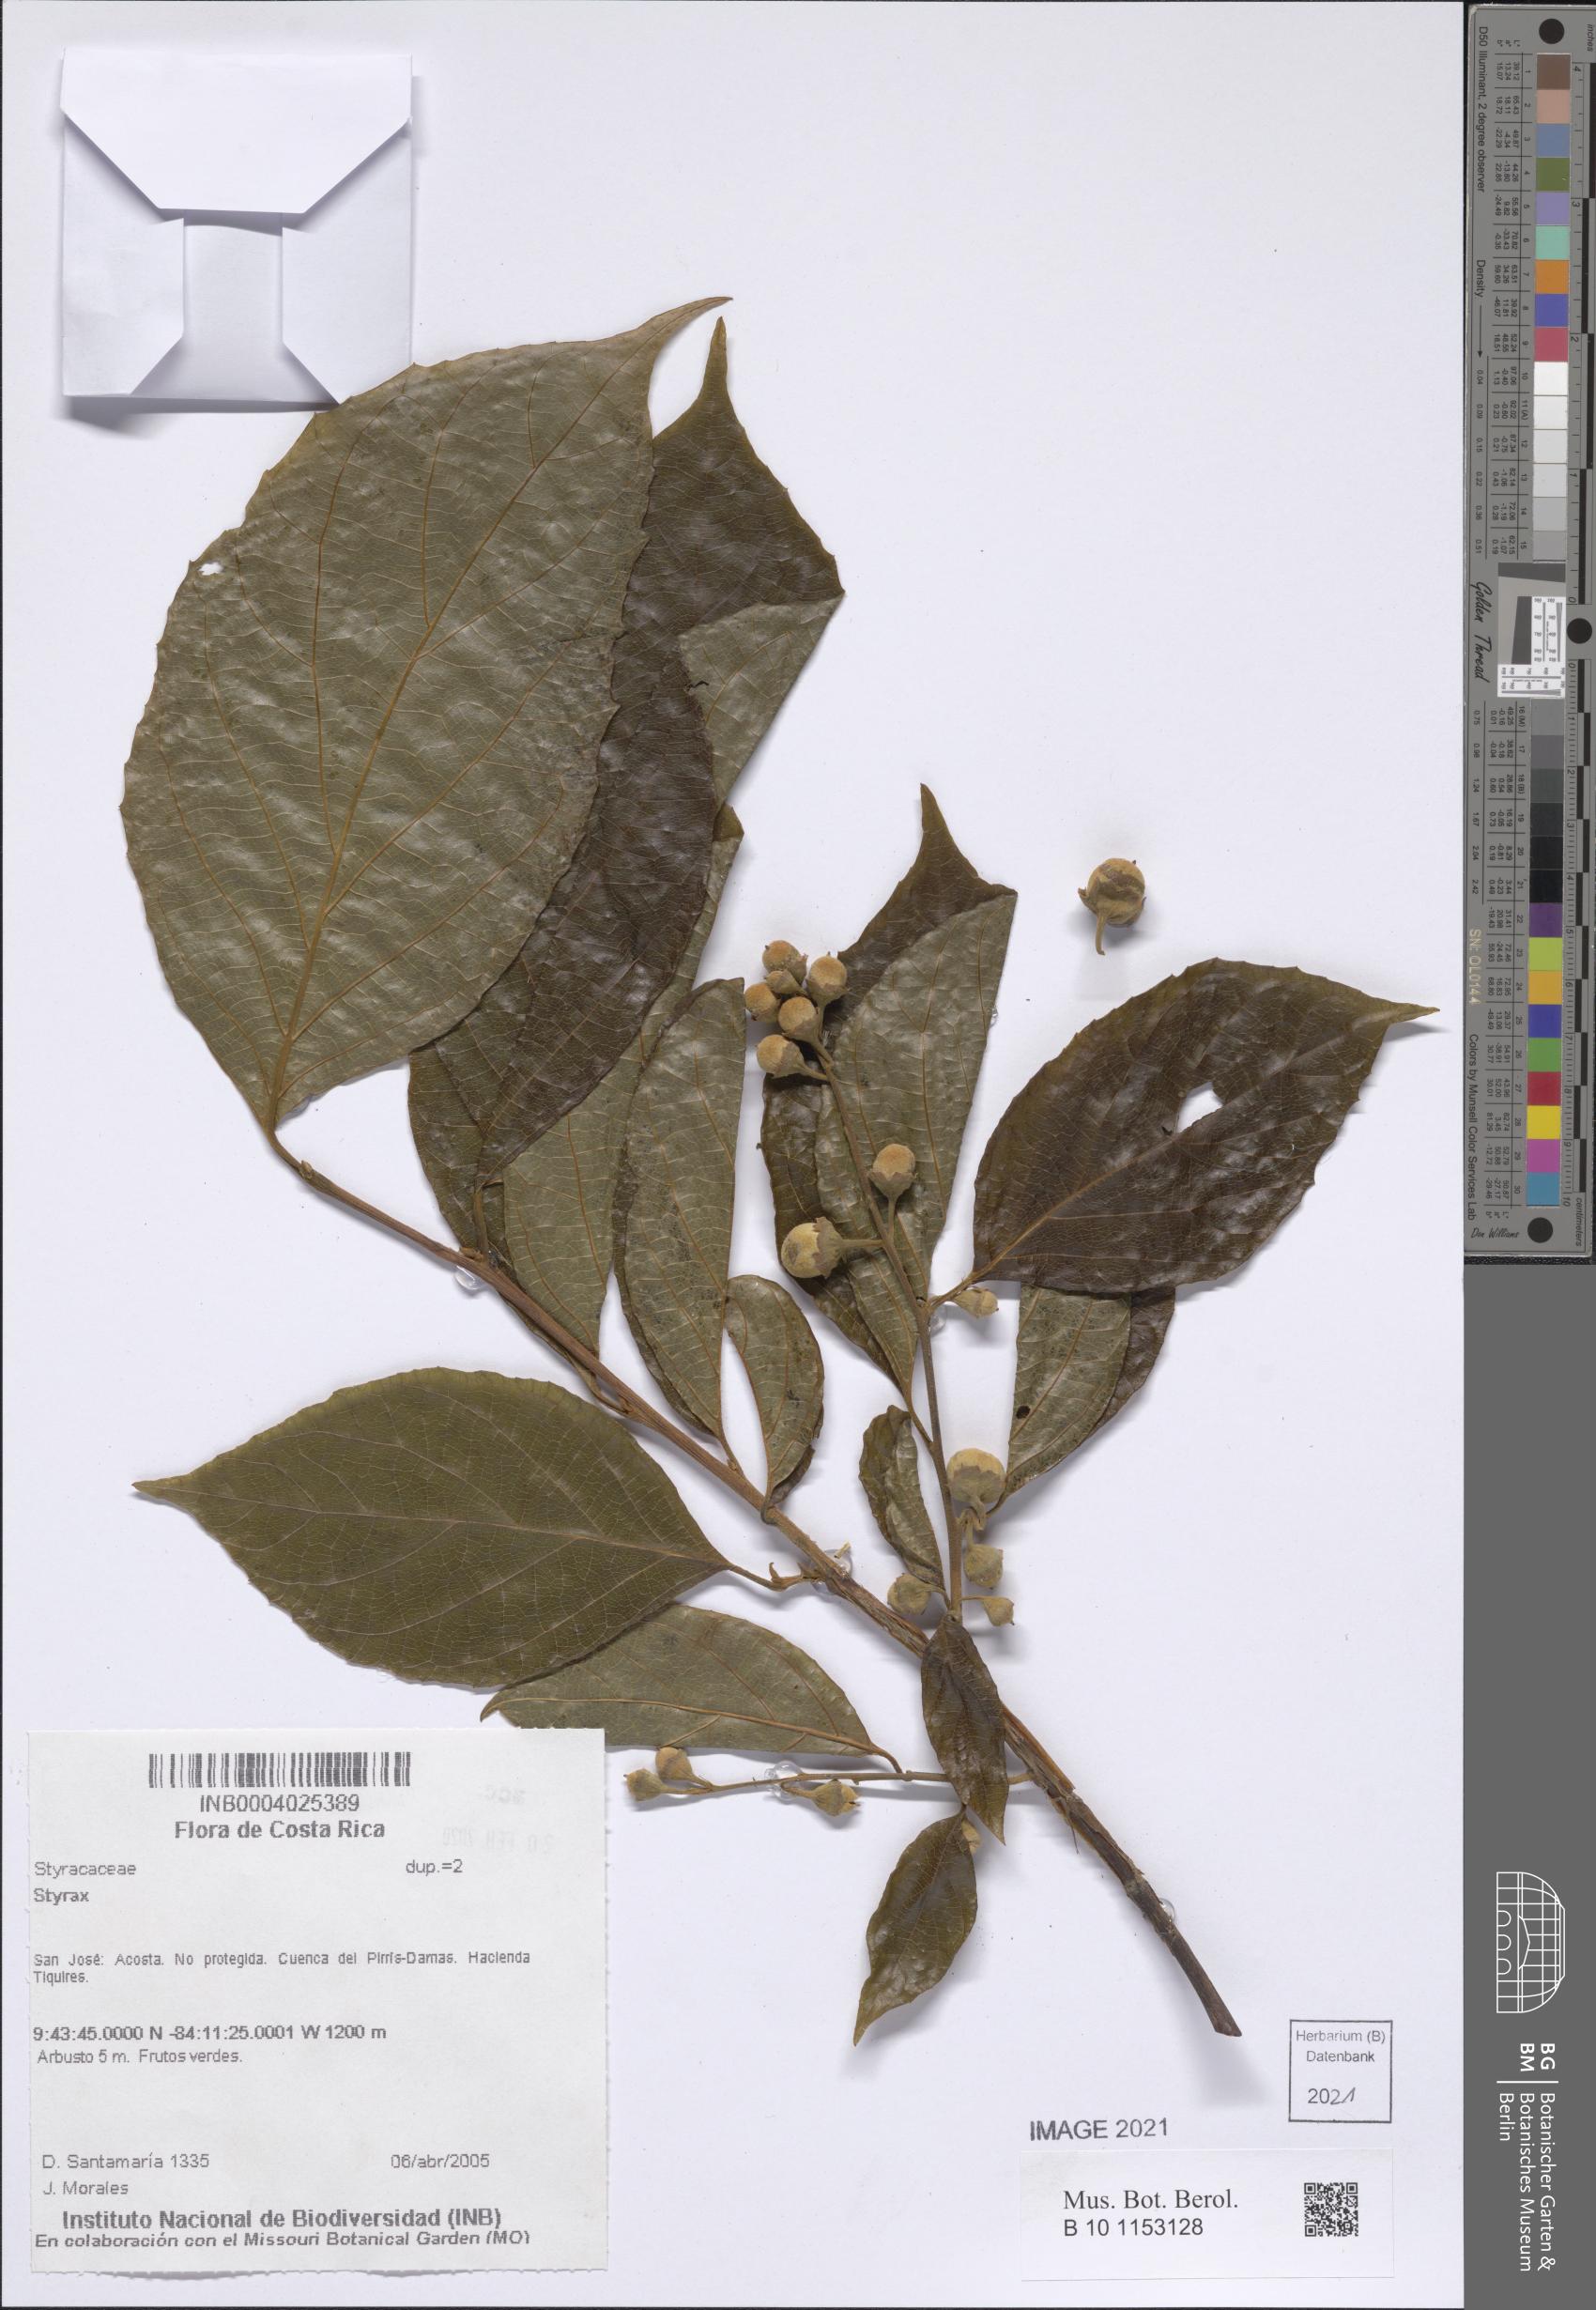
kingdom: Plantae
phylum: Tracheophyta
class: Magnoliopsida
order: Ericales
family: Styracaceae
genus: Styrax
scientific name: Styrax
